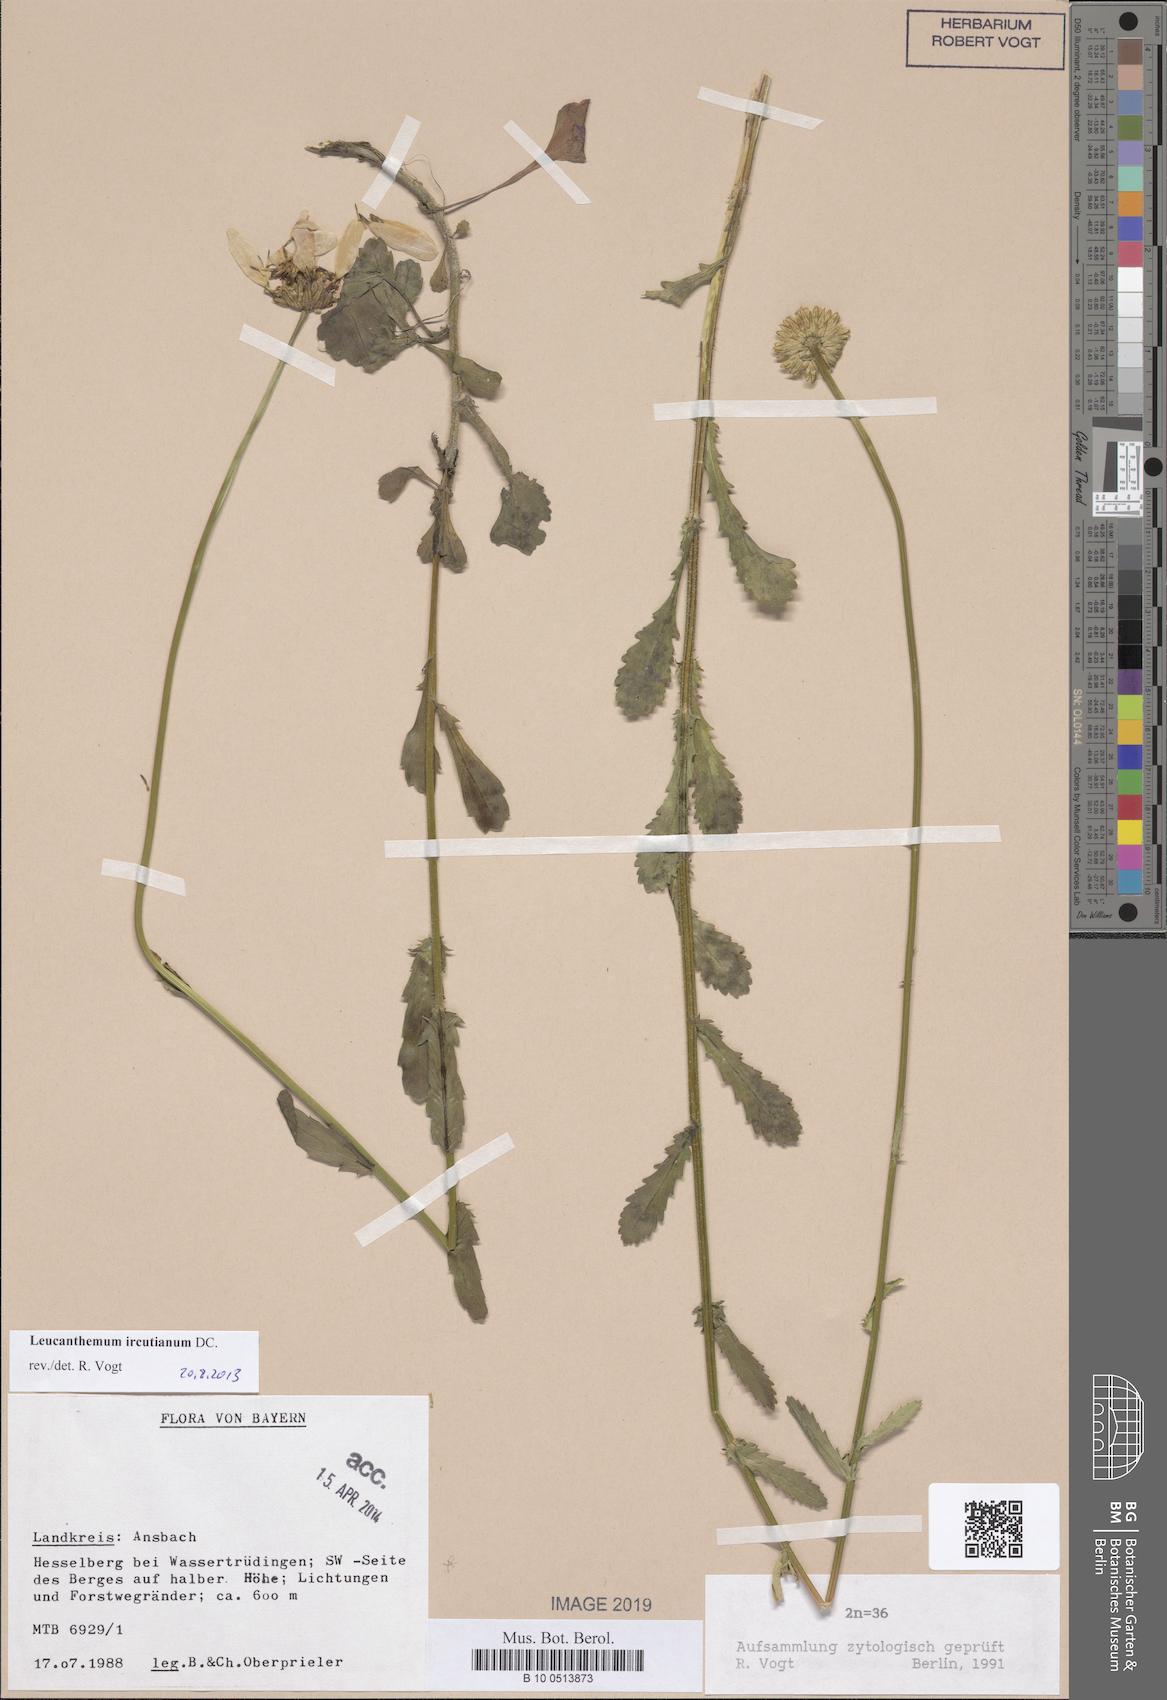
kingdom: Plantae
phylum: Tracheophyta
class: Magnoliopsida
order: Asterales
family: Asteraceae
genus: Leucanthemum
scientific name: Leucanthemum ircutianum
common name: Daisy
